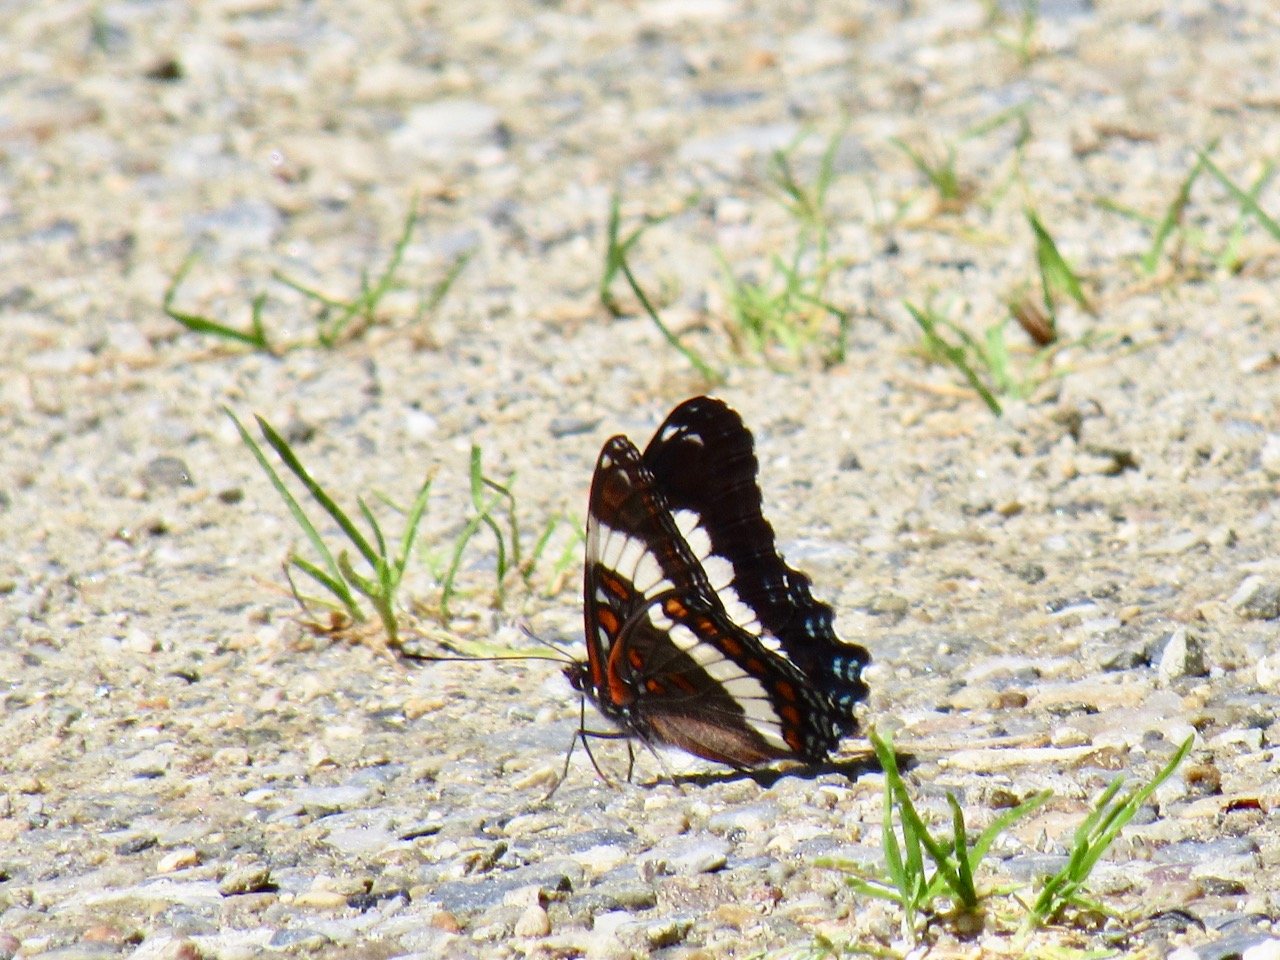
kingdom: Animalia
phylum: Arthropoda
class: Insecta
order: Lepidoptera
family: Nymphalidae
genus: Limenitis
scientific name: Limenitis arthemis
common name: Red-spotted Admiral
